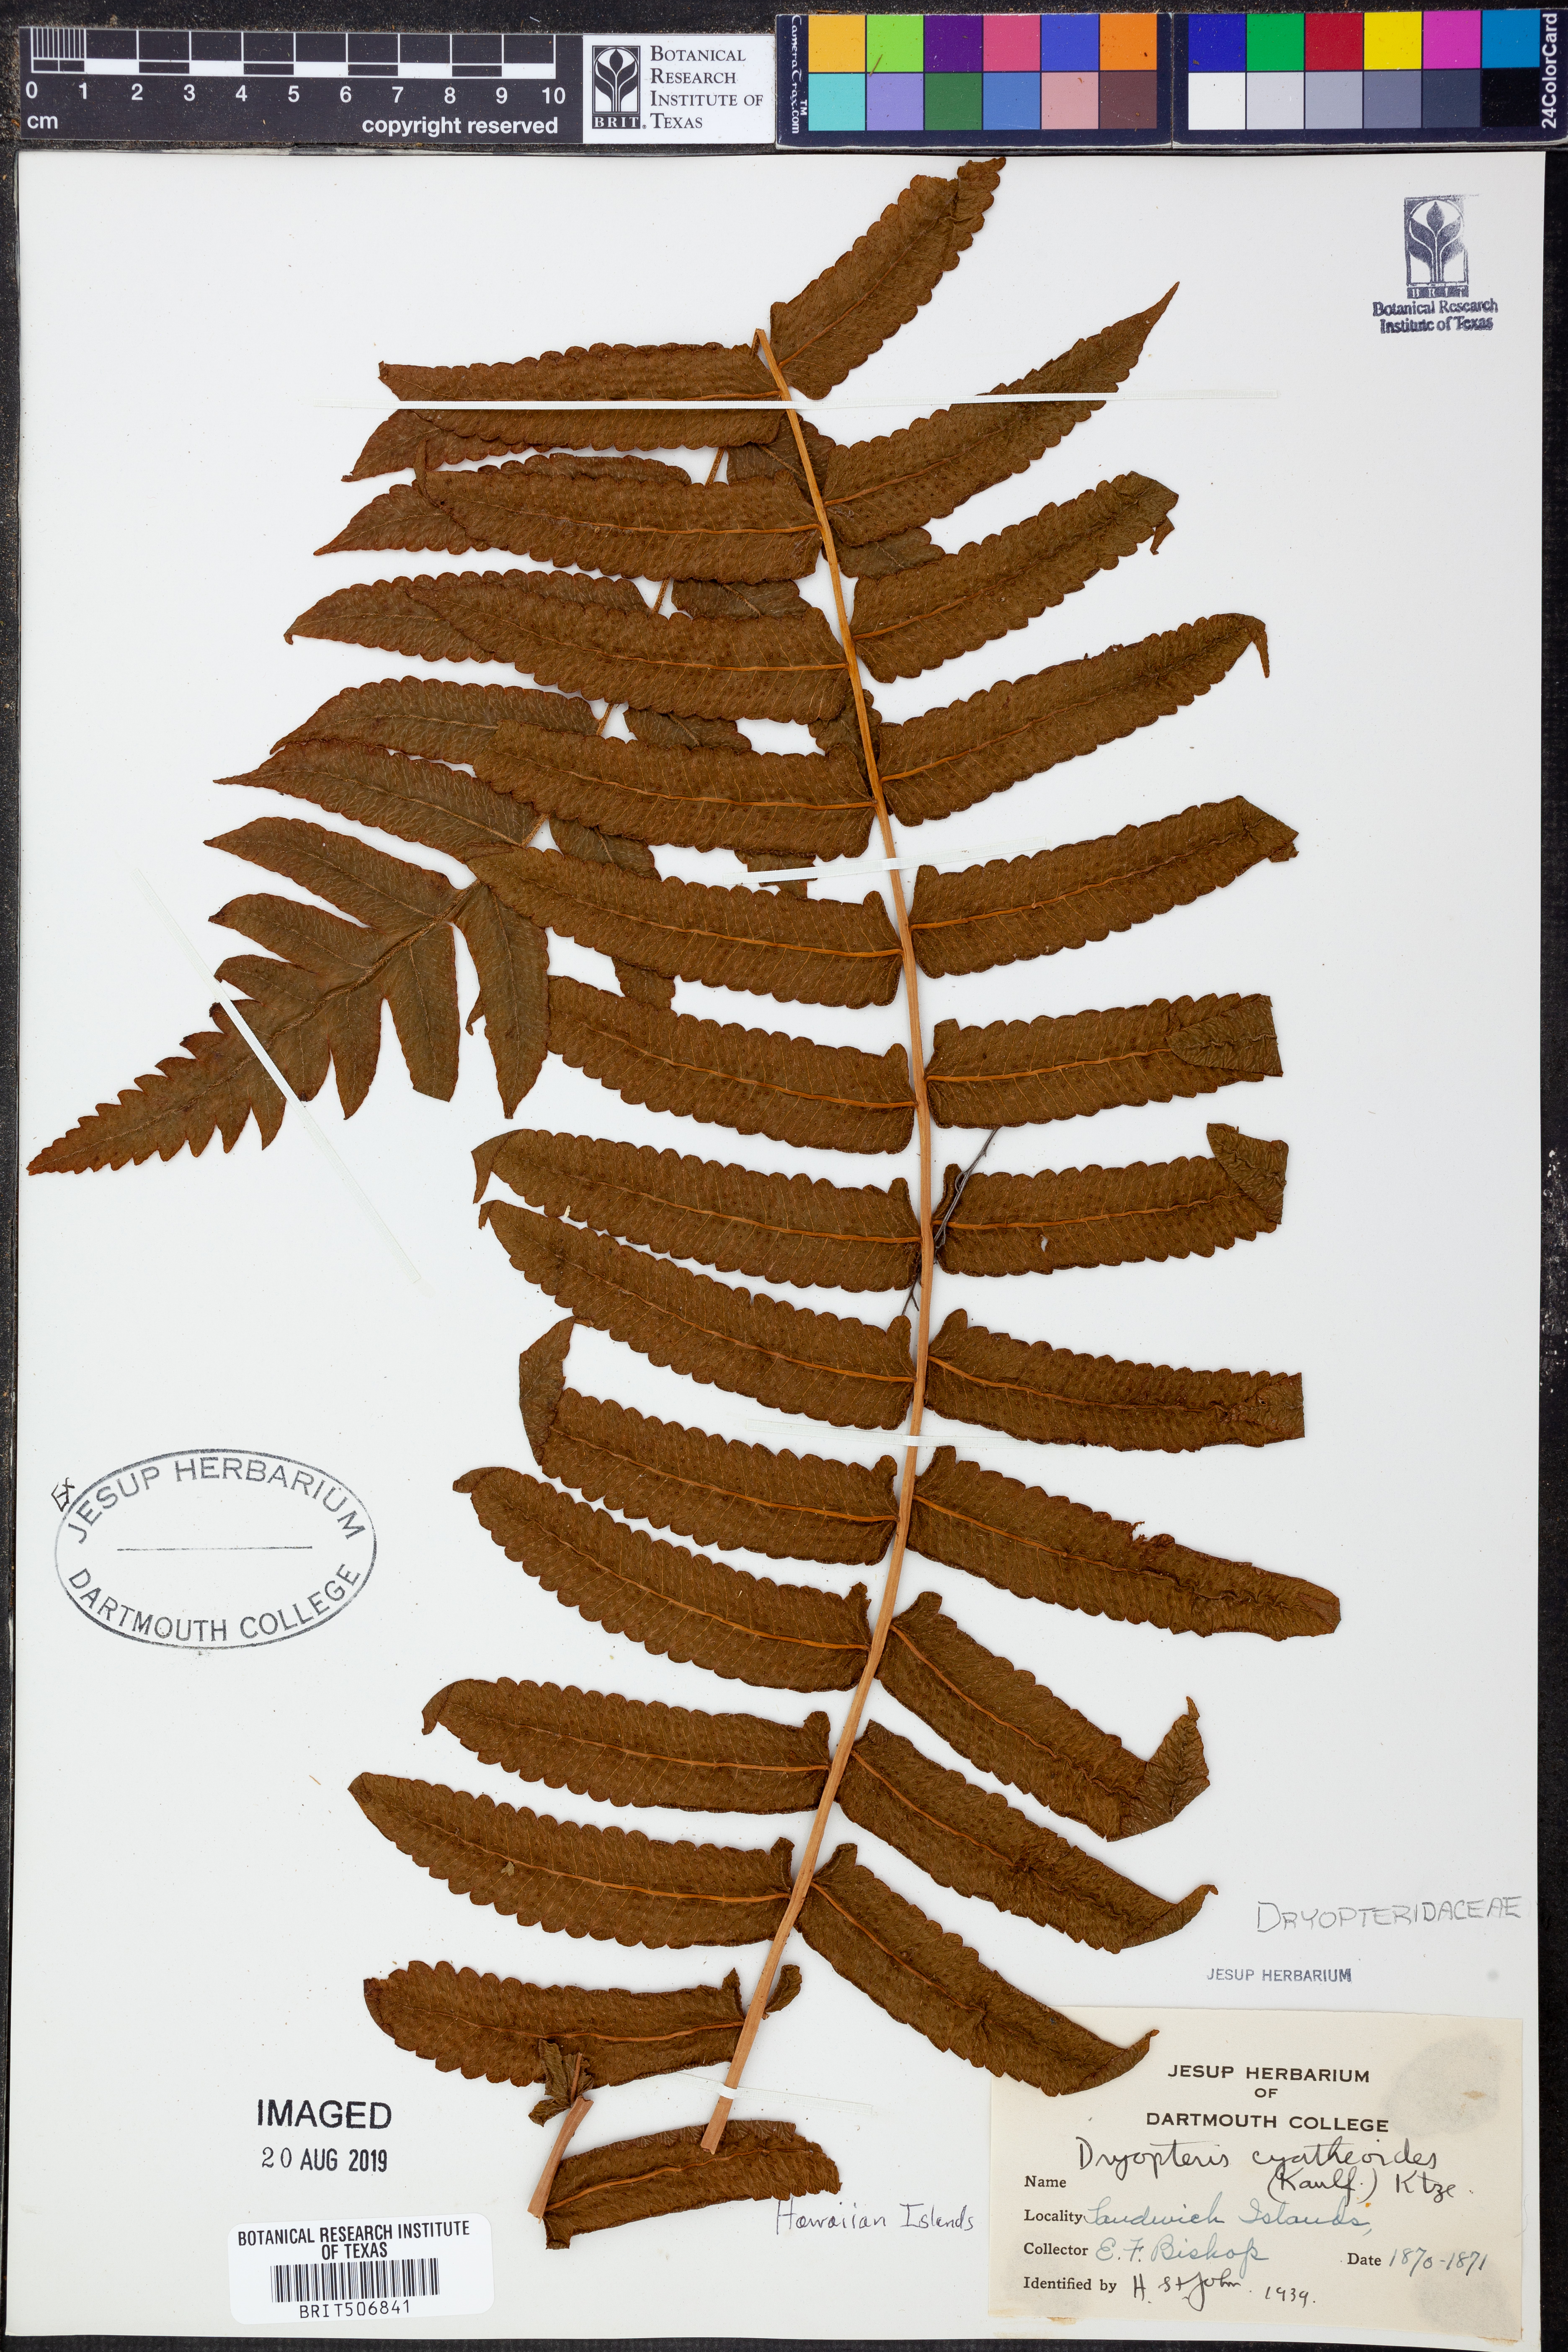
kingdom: Plantae
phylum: Tracheophyta
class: Polypodiopsida
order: Polypodiales
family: Thelypteridaceae
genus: Menisciopsis
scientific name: Menisciopsis cyatheoides
